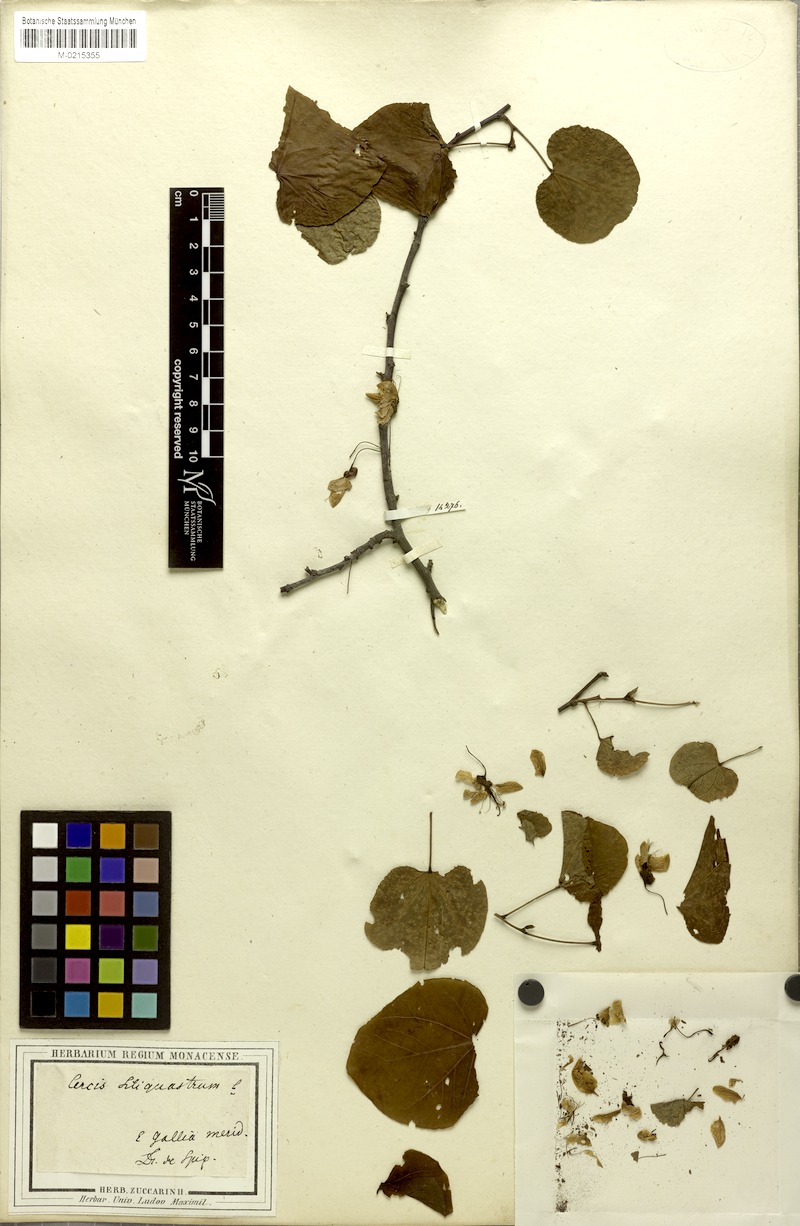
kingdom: Plantae
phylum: Tracheophyta
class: Magnoliopsida
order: Fabales
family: Fabaceae
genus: Cercis
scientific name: Cercis siliquastrum
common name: Judas tree
